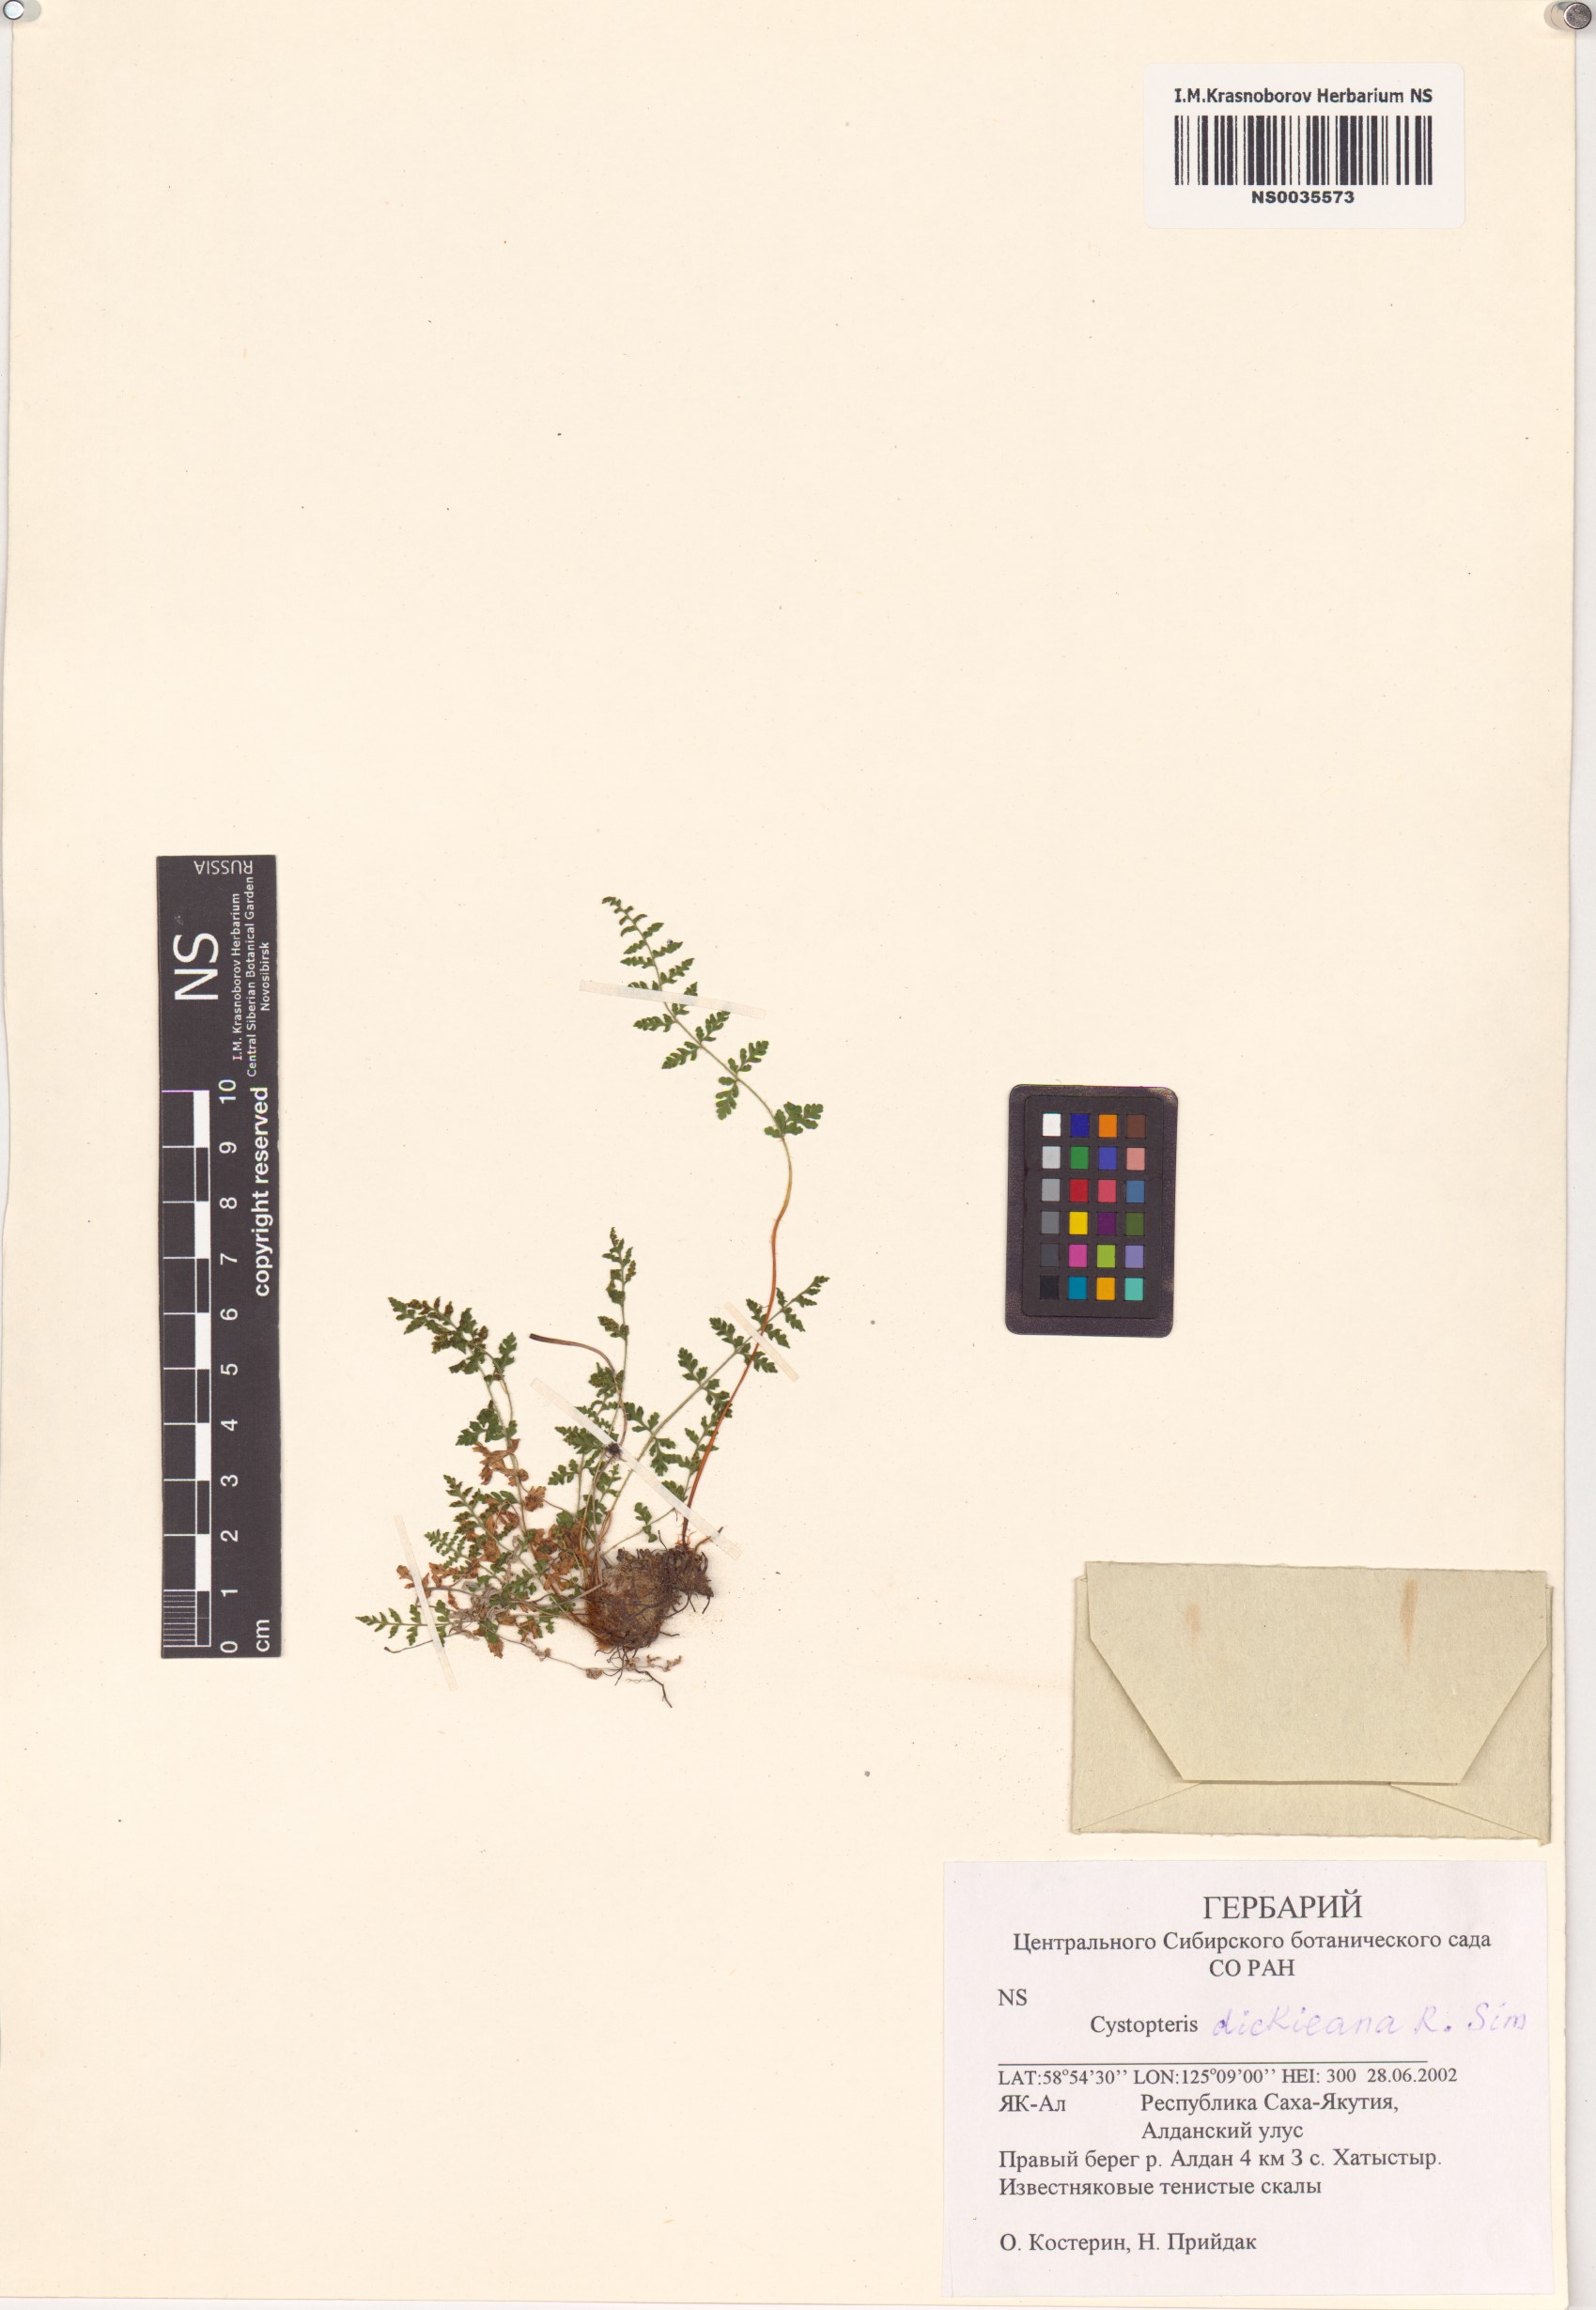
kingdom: Plantae
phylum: Tracheophyta
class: Polypodiopsida
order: Polypodiales
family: Cystopteridaceae
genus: Cystopteris
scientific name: Cystopteris dickieana
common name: Dickie's bladder-fern
